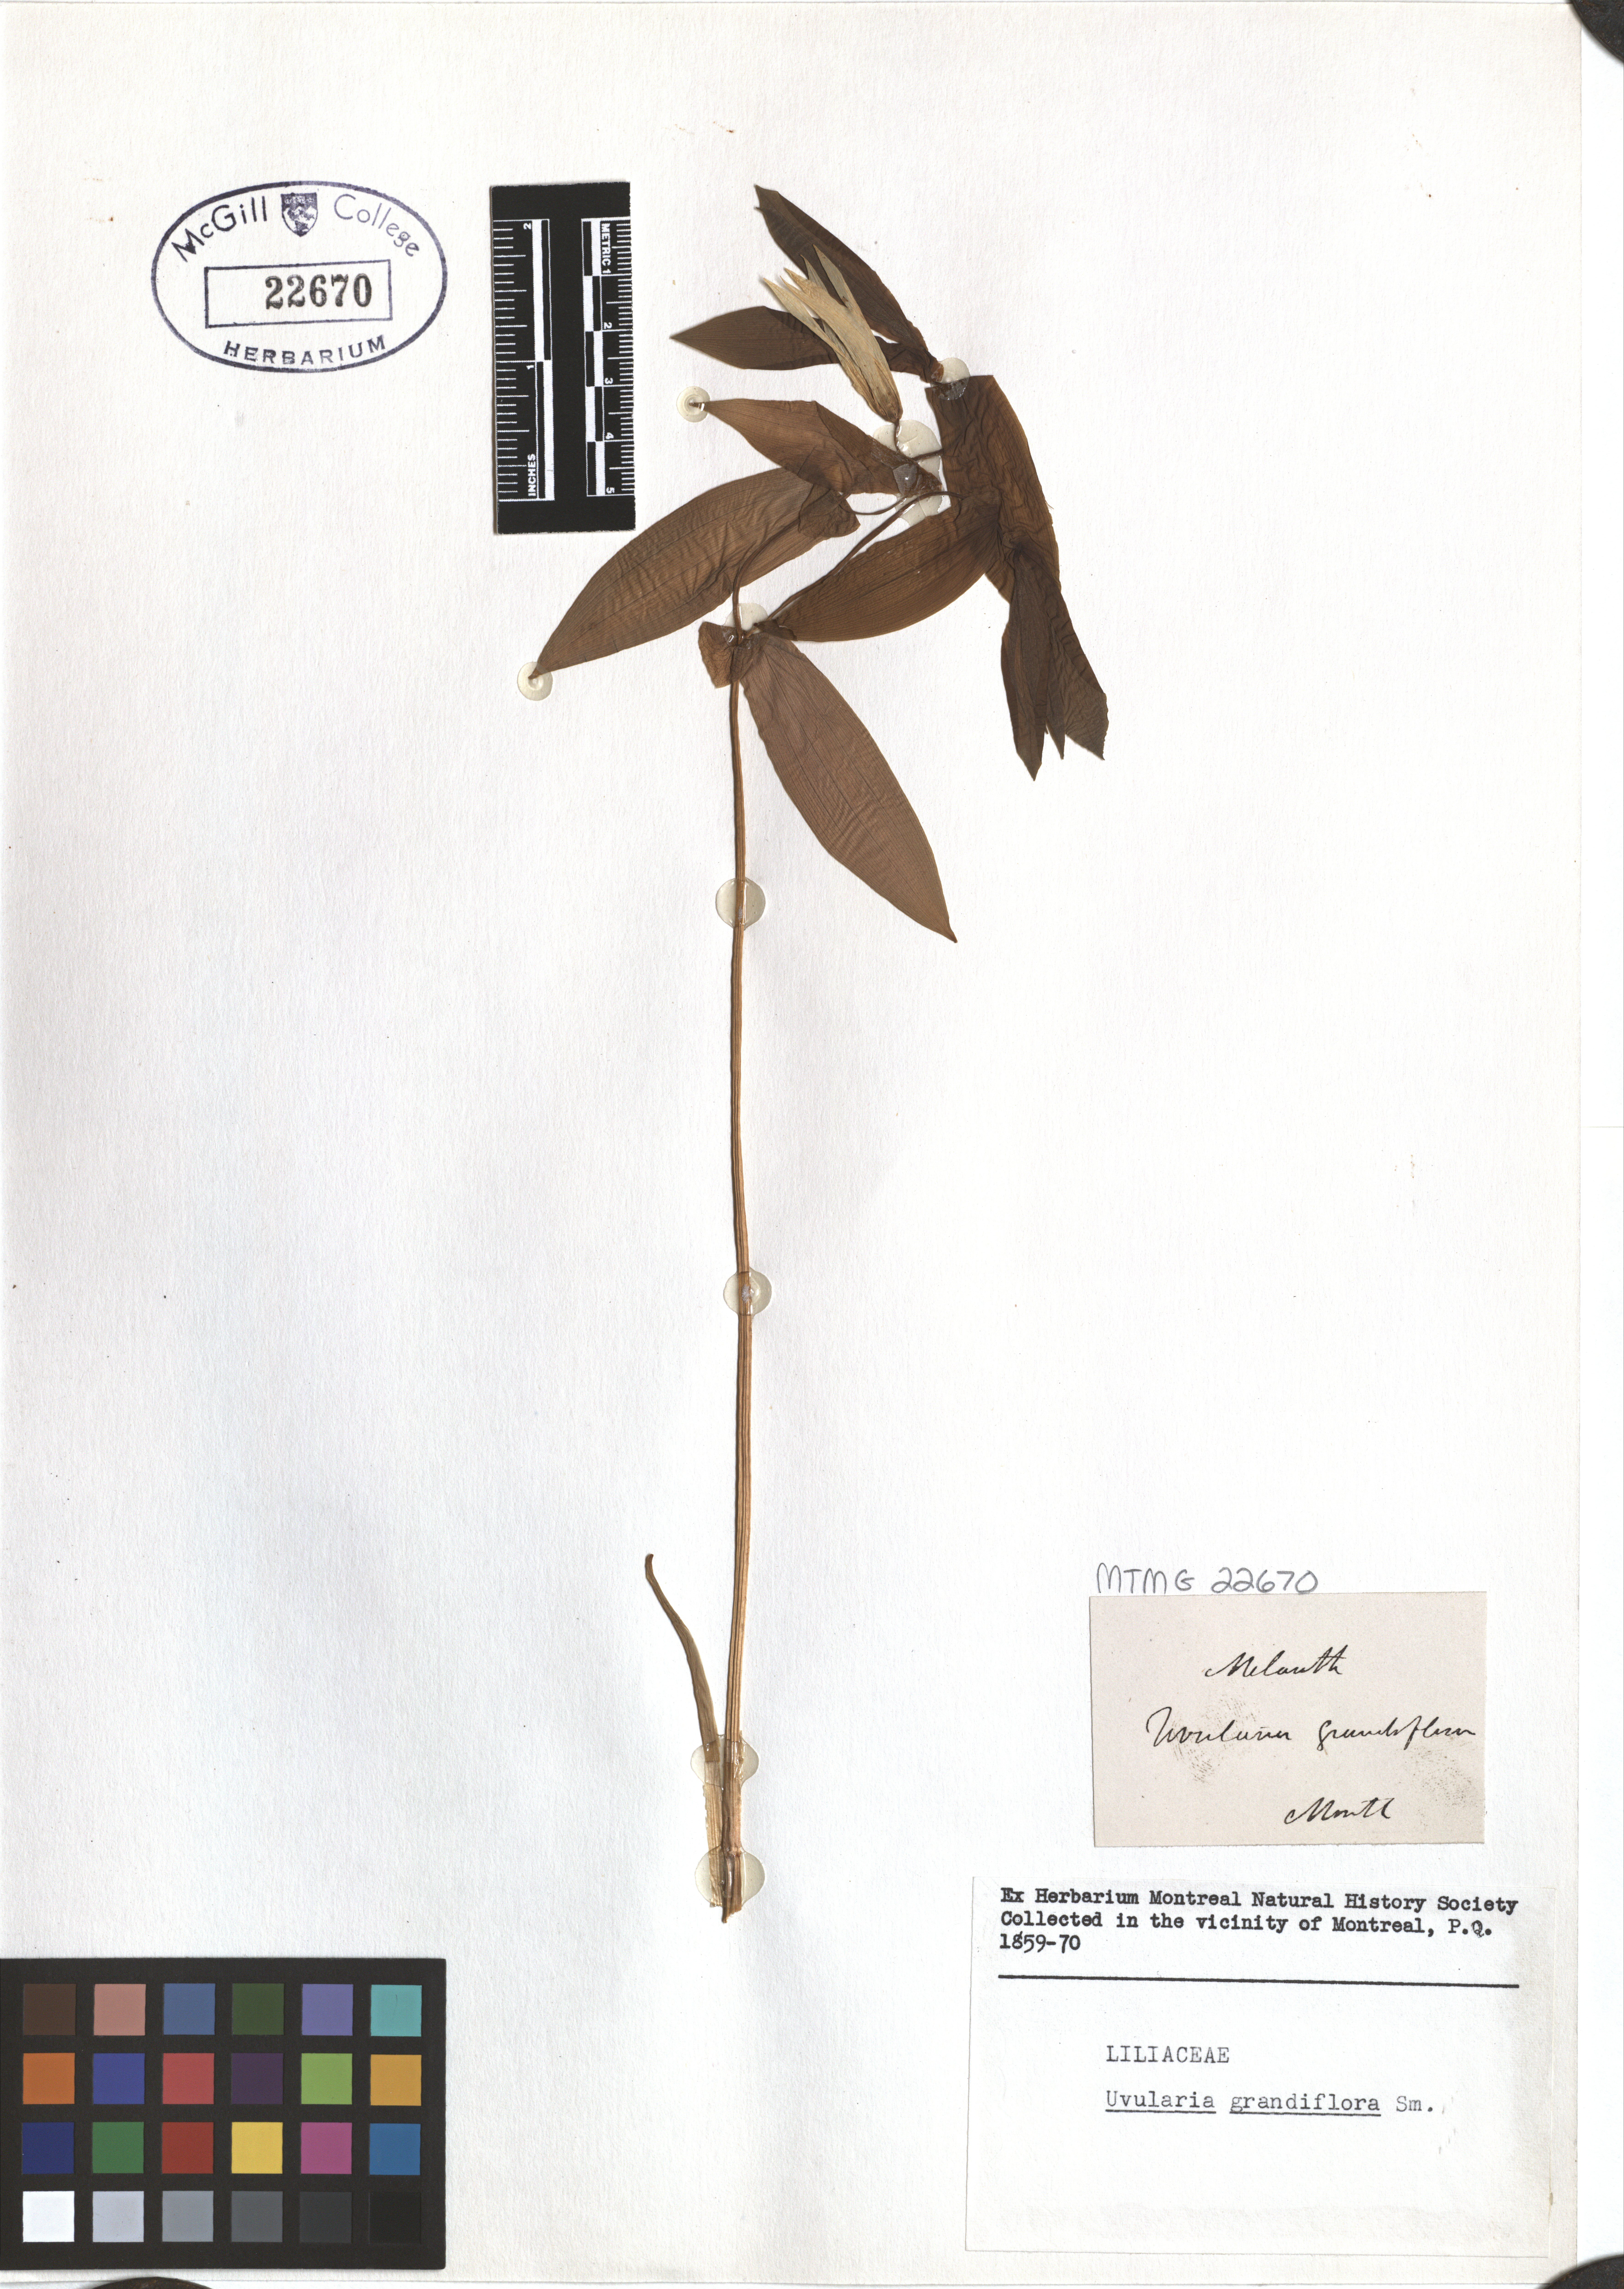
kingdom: Plantae
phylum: Tracheophyta
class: Liliopsida
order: Liliales
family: Colchicaceae
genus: Uvularia
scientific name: Uvularia grandiflora
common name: Bellwort
